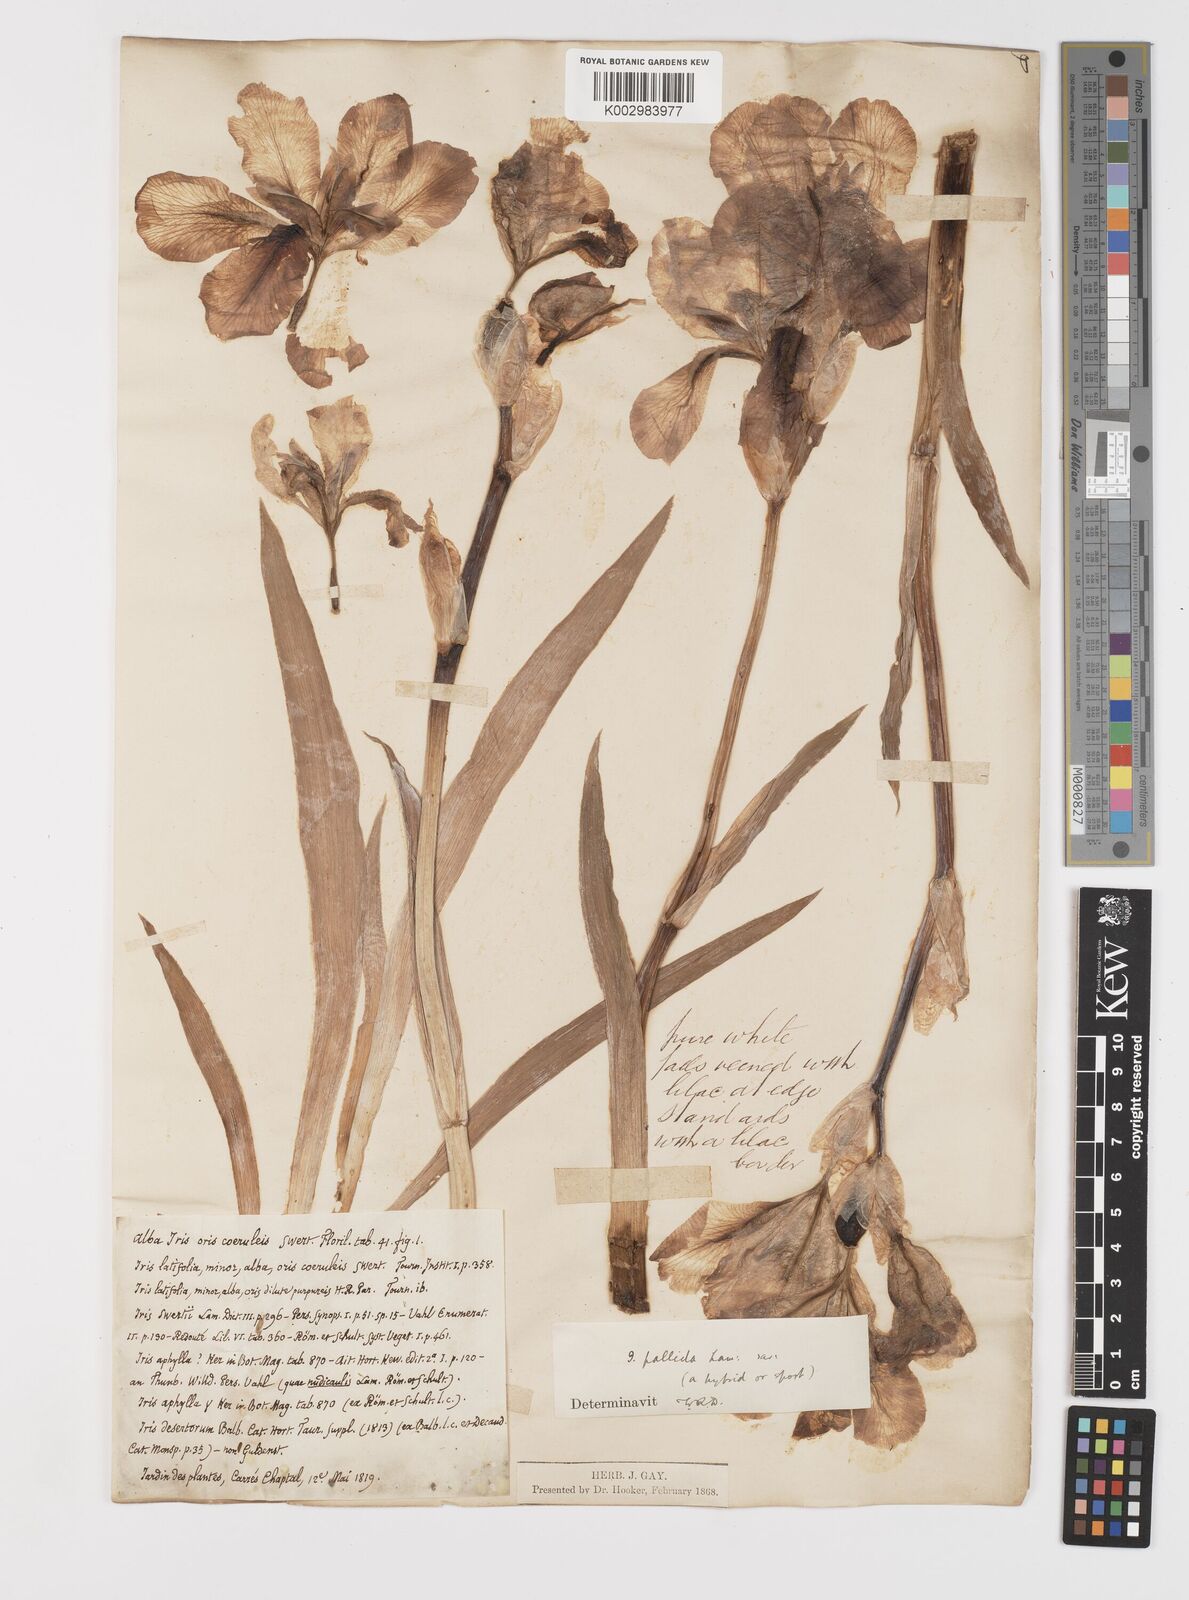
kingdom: Plantae
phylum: Tracheophyta
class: Liliopsida
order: Asparagales
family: Iridaceae
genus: Iris
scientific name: Iris halophila
